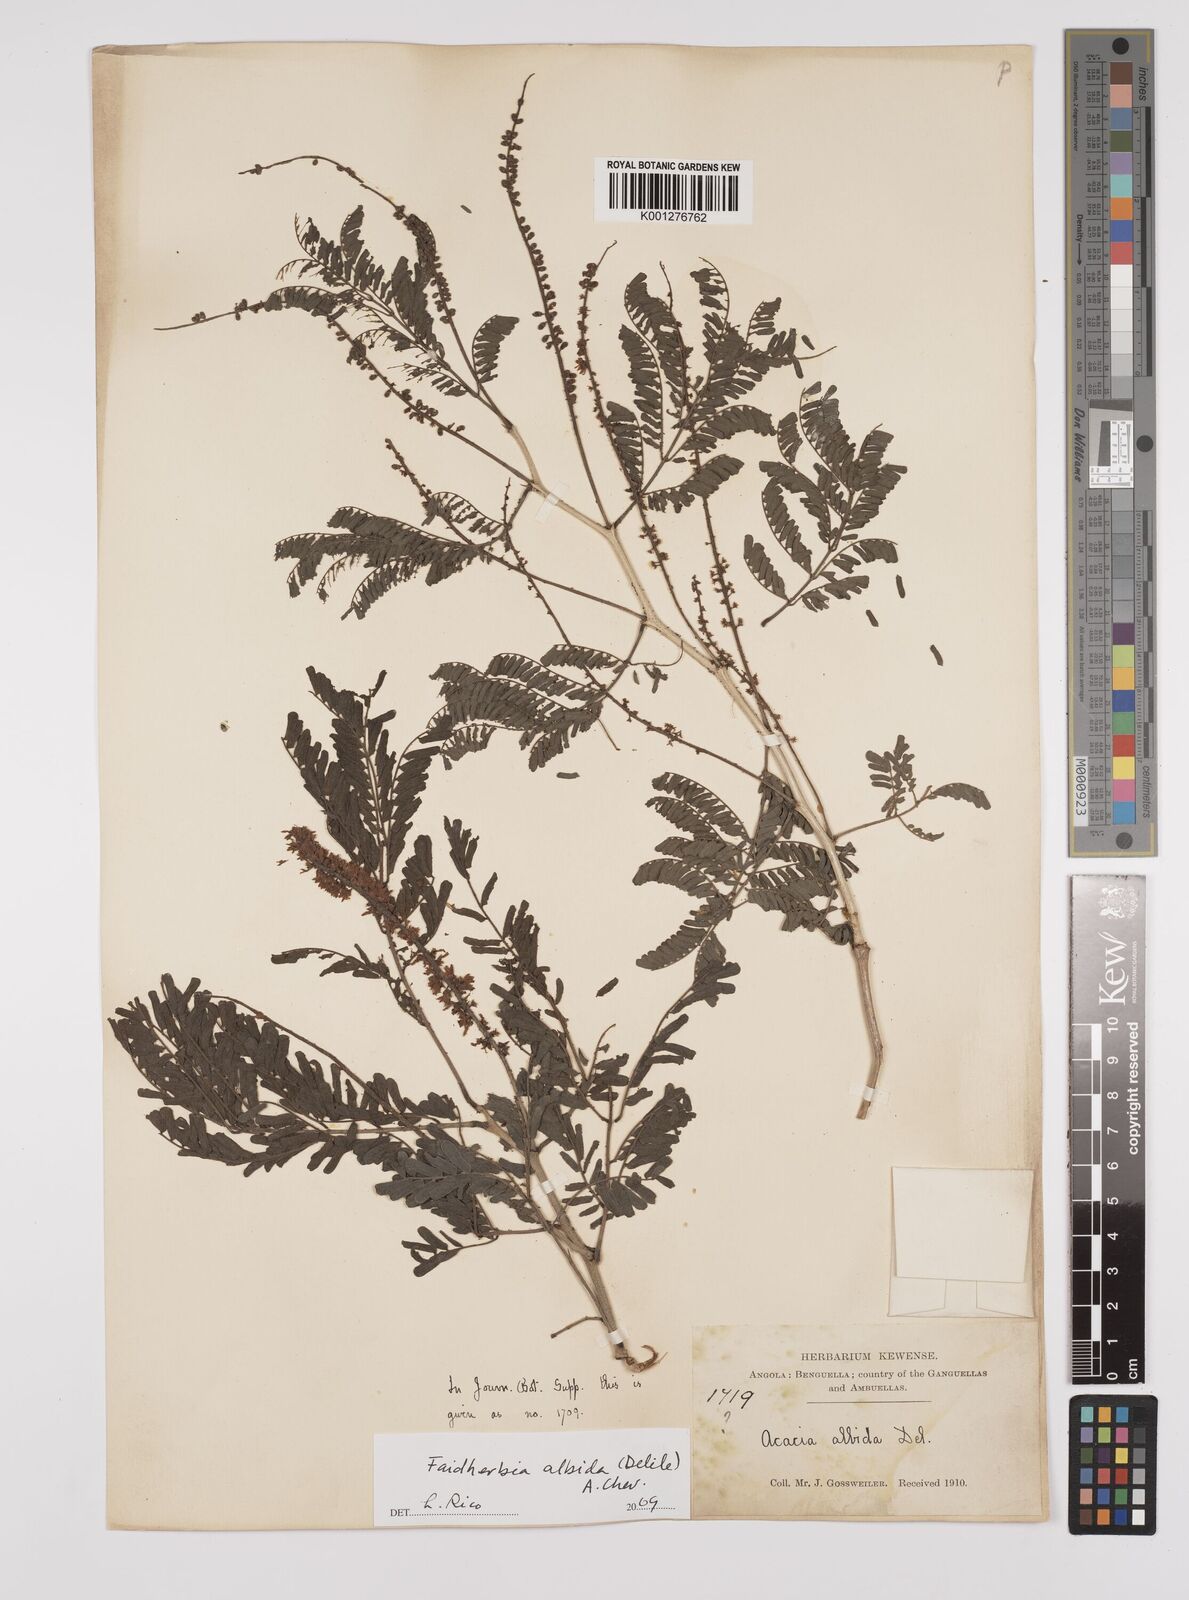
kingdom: Plantae
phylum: Tracheophyta
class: Magnoliopsida
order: Fabales
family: Fabaceae
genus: Faidherbia
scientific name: Faidherbia albida
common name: Anatree
